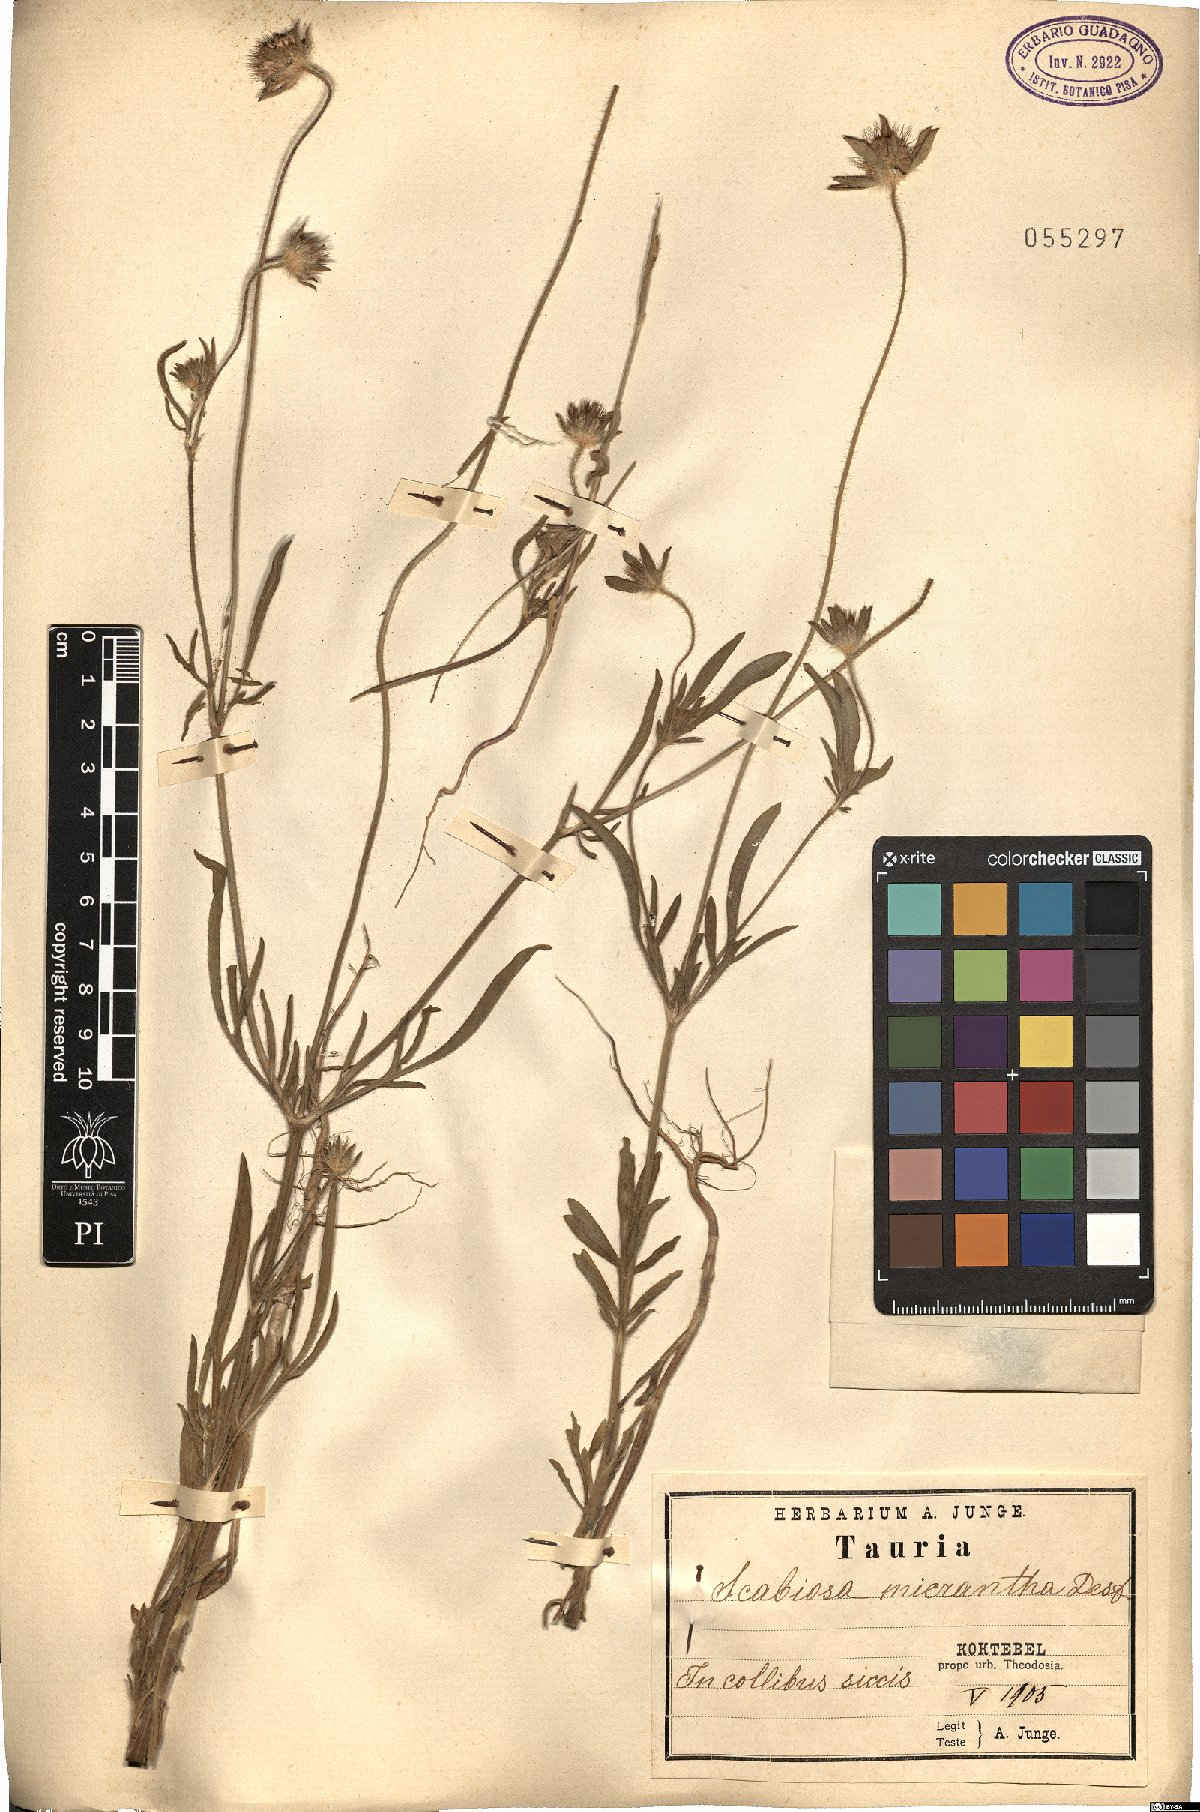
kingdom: Plantae
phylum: Tracheophyta
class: Magnoliopsida
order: Dipsacales
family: Caprifoliaceae
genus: Lomelosia
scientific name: Lomelosia micrantha
